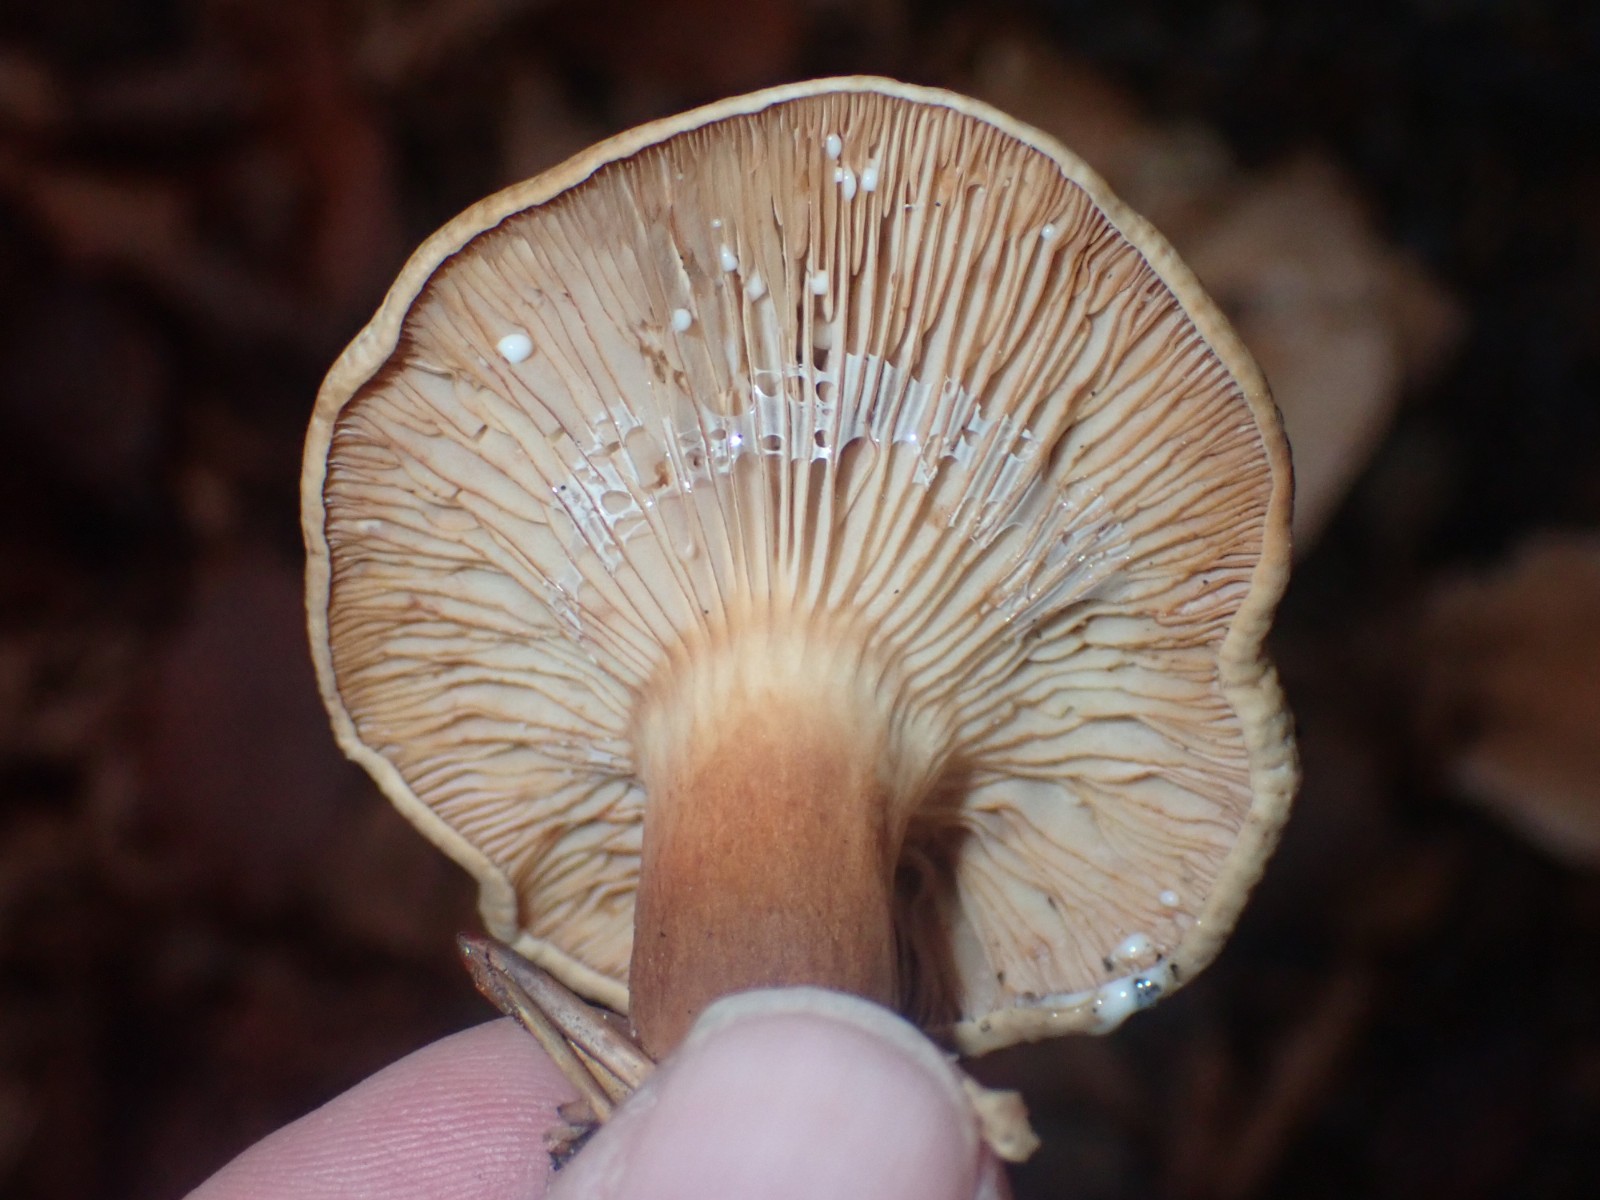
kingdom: Fungi
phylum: Basidiomycota
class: Agaricomycetes
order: Russulales
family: Russulaceae
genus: Lactarius
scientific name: Lactarius subdulcis
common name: sødlig mælkehat
